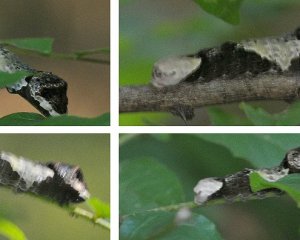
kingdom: Animalia
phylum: Arthropoda
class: Insecta
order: Lepidoptera
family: Papilionidae
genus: Papilio
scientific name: Papilio cresphontes
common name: Eastern Giant Swallowtail
